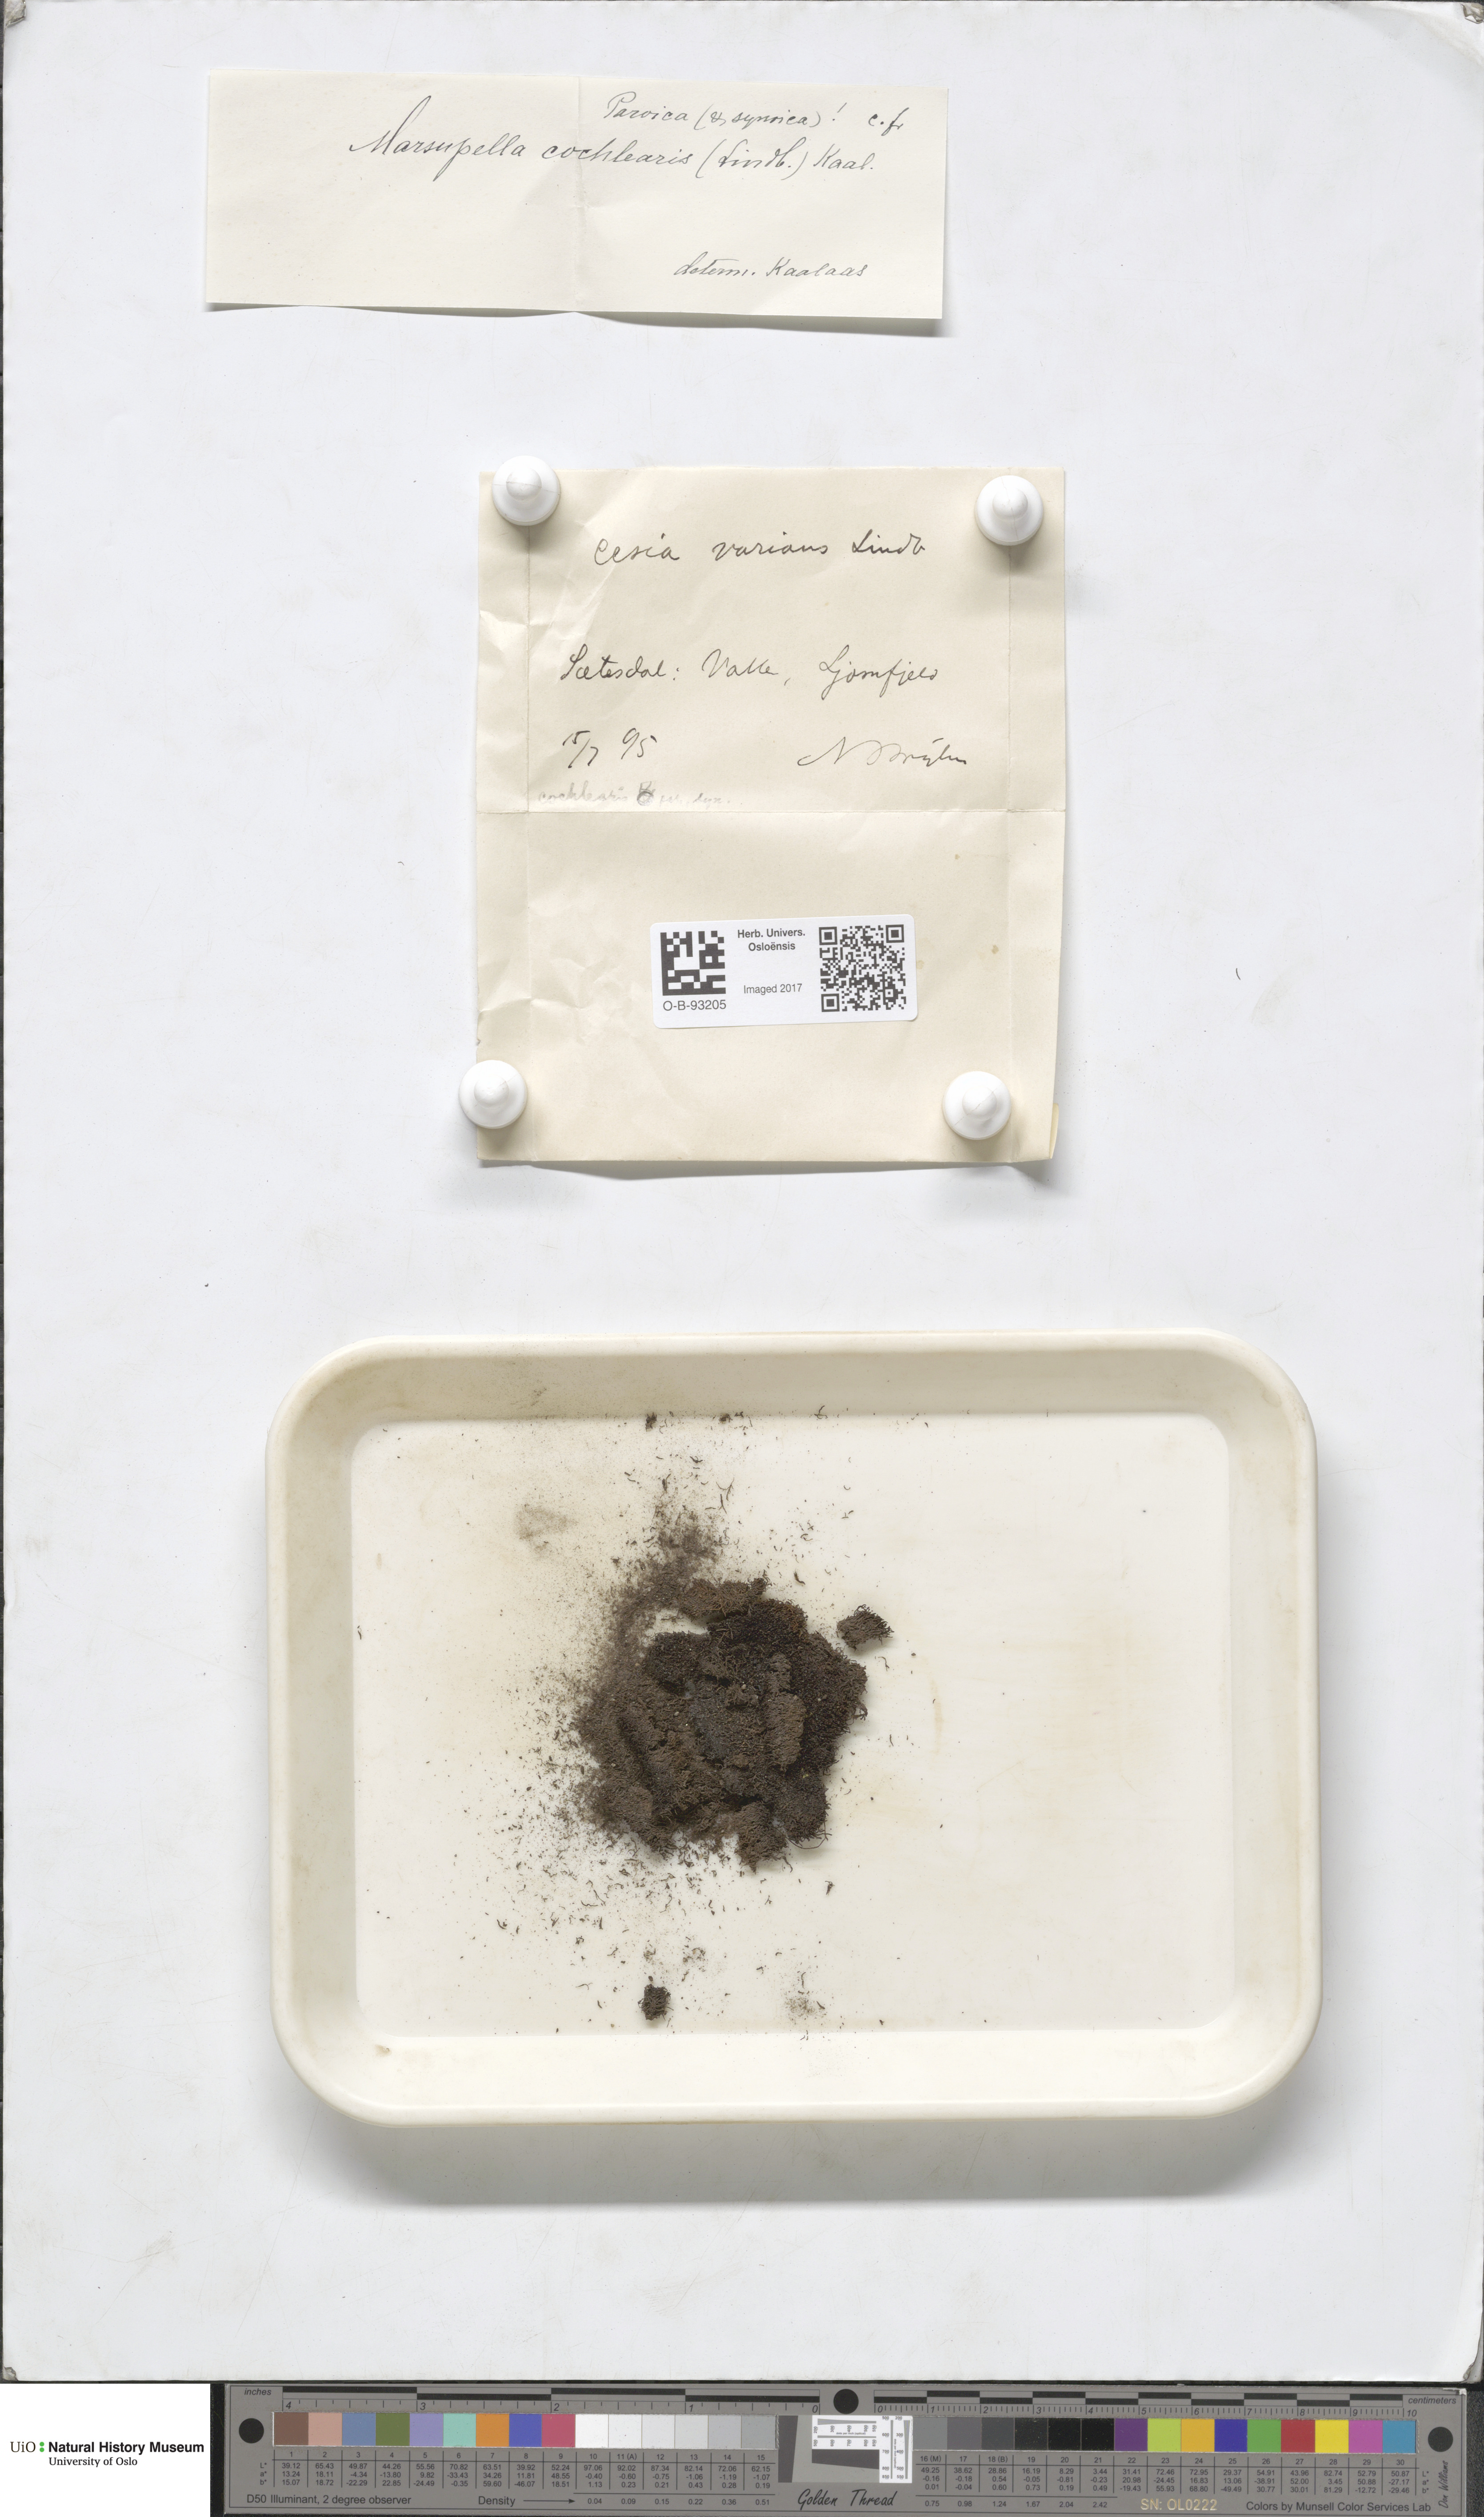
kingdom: Plantae
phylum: Marchantiophyta
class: Jungermanniopsida
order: Jungermanniales
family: Gymnomitriaceae
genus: Gymnomitrion
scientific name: Gymnomitrion brevissimum
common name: Snow rustwort
